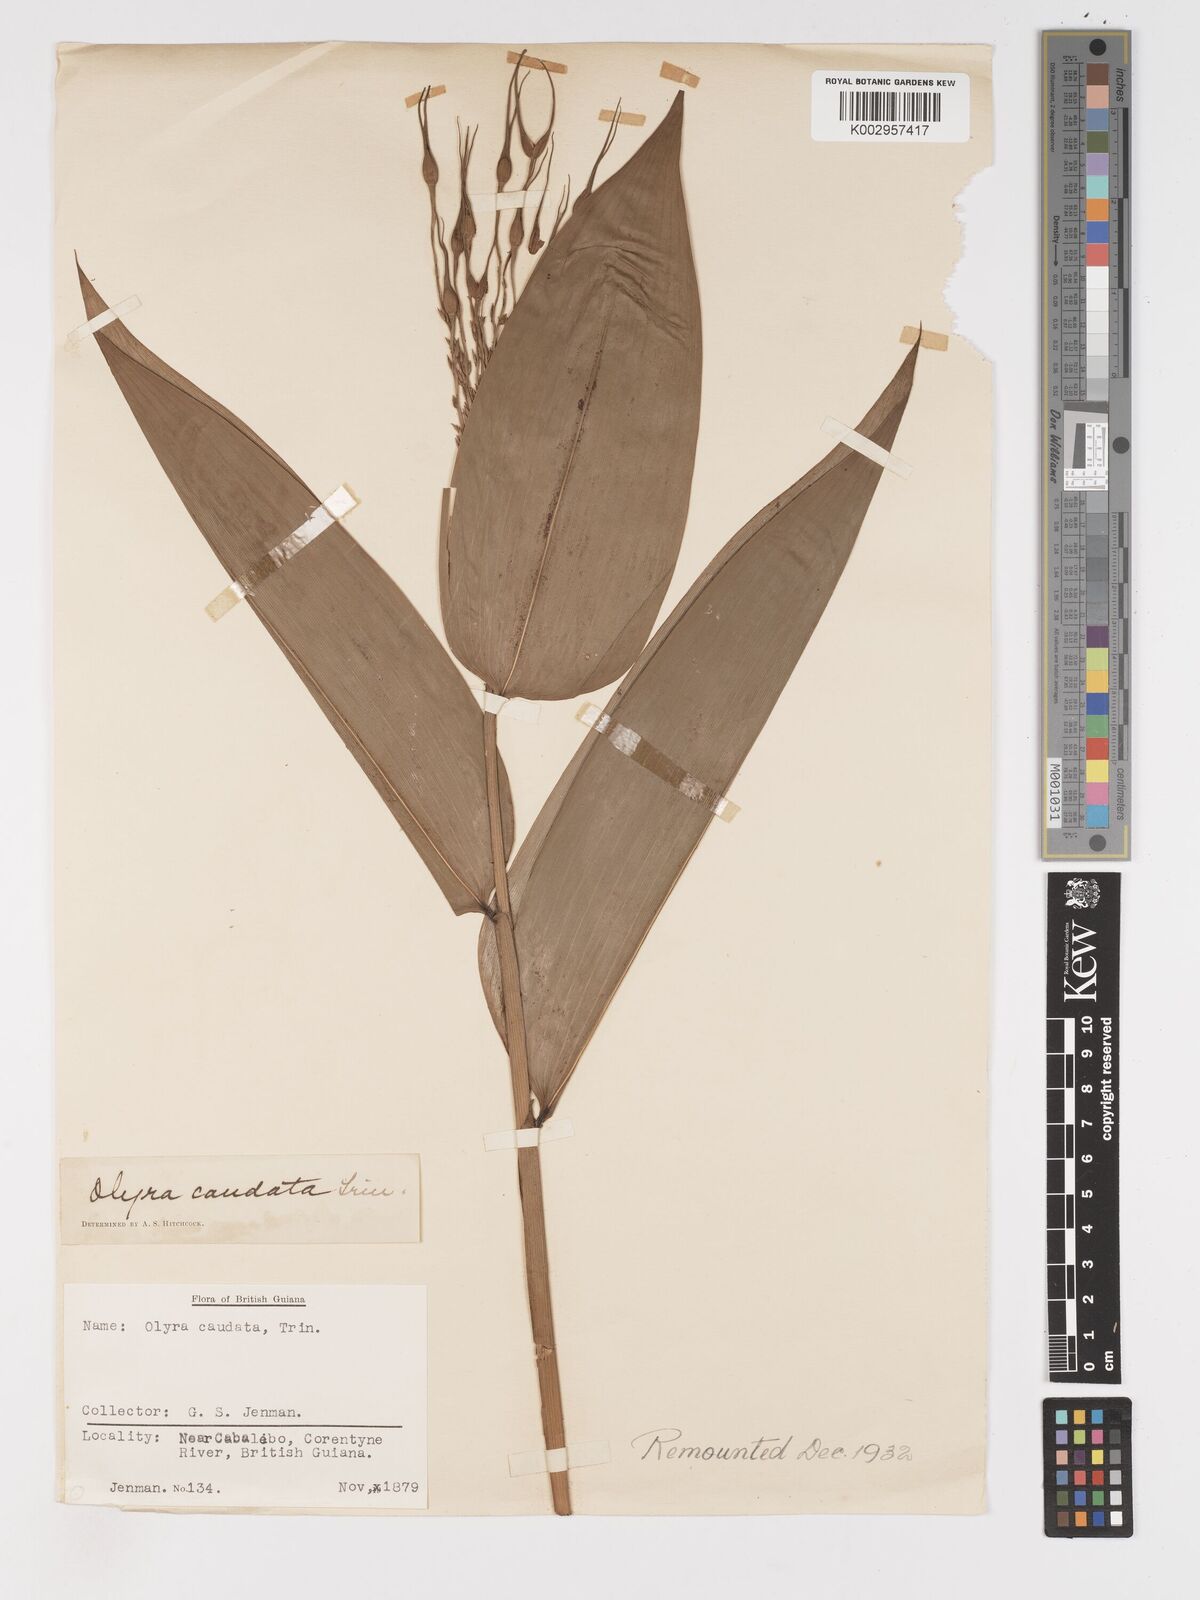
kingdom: Plantae
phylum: Tracheophyta
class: Liliopsida
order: Poales
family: Poaceae
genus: Olyra
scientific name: Olyra caudata
